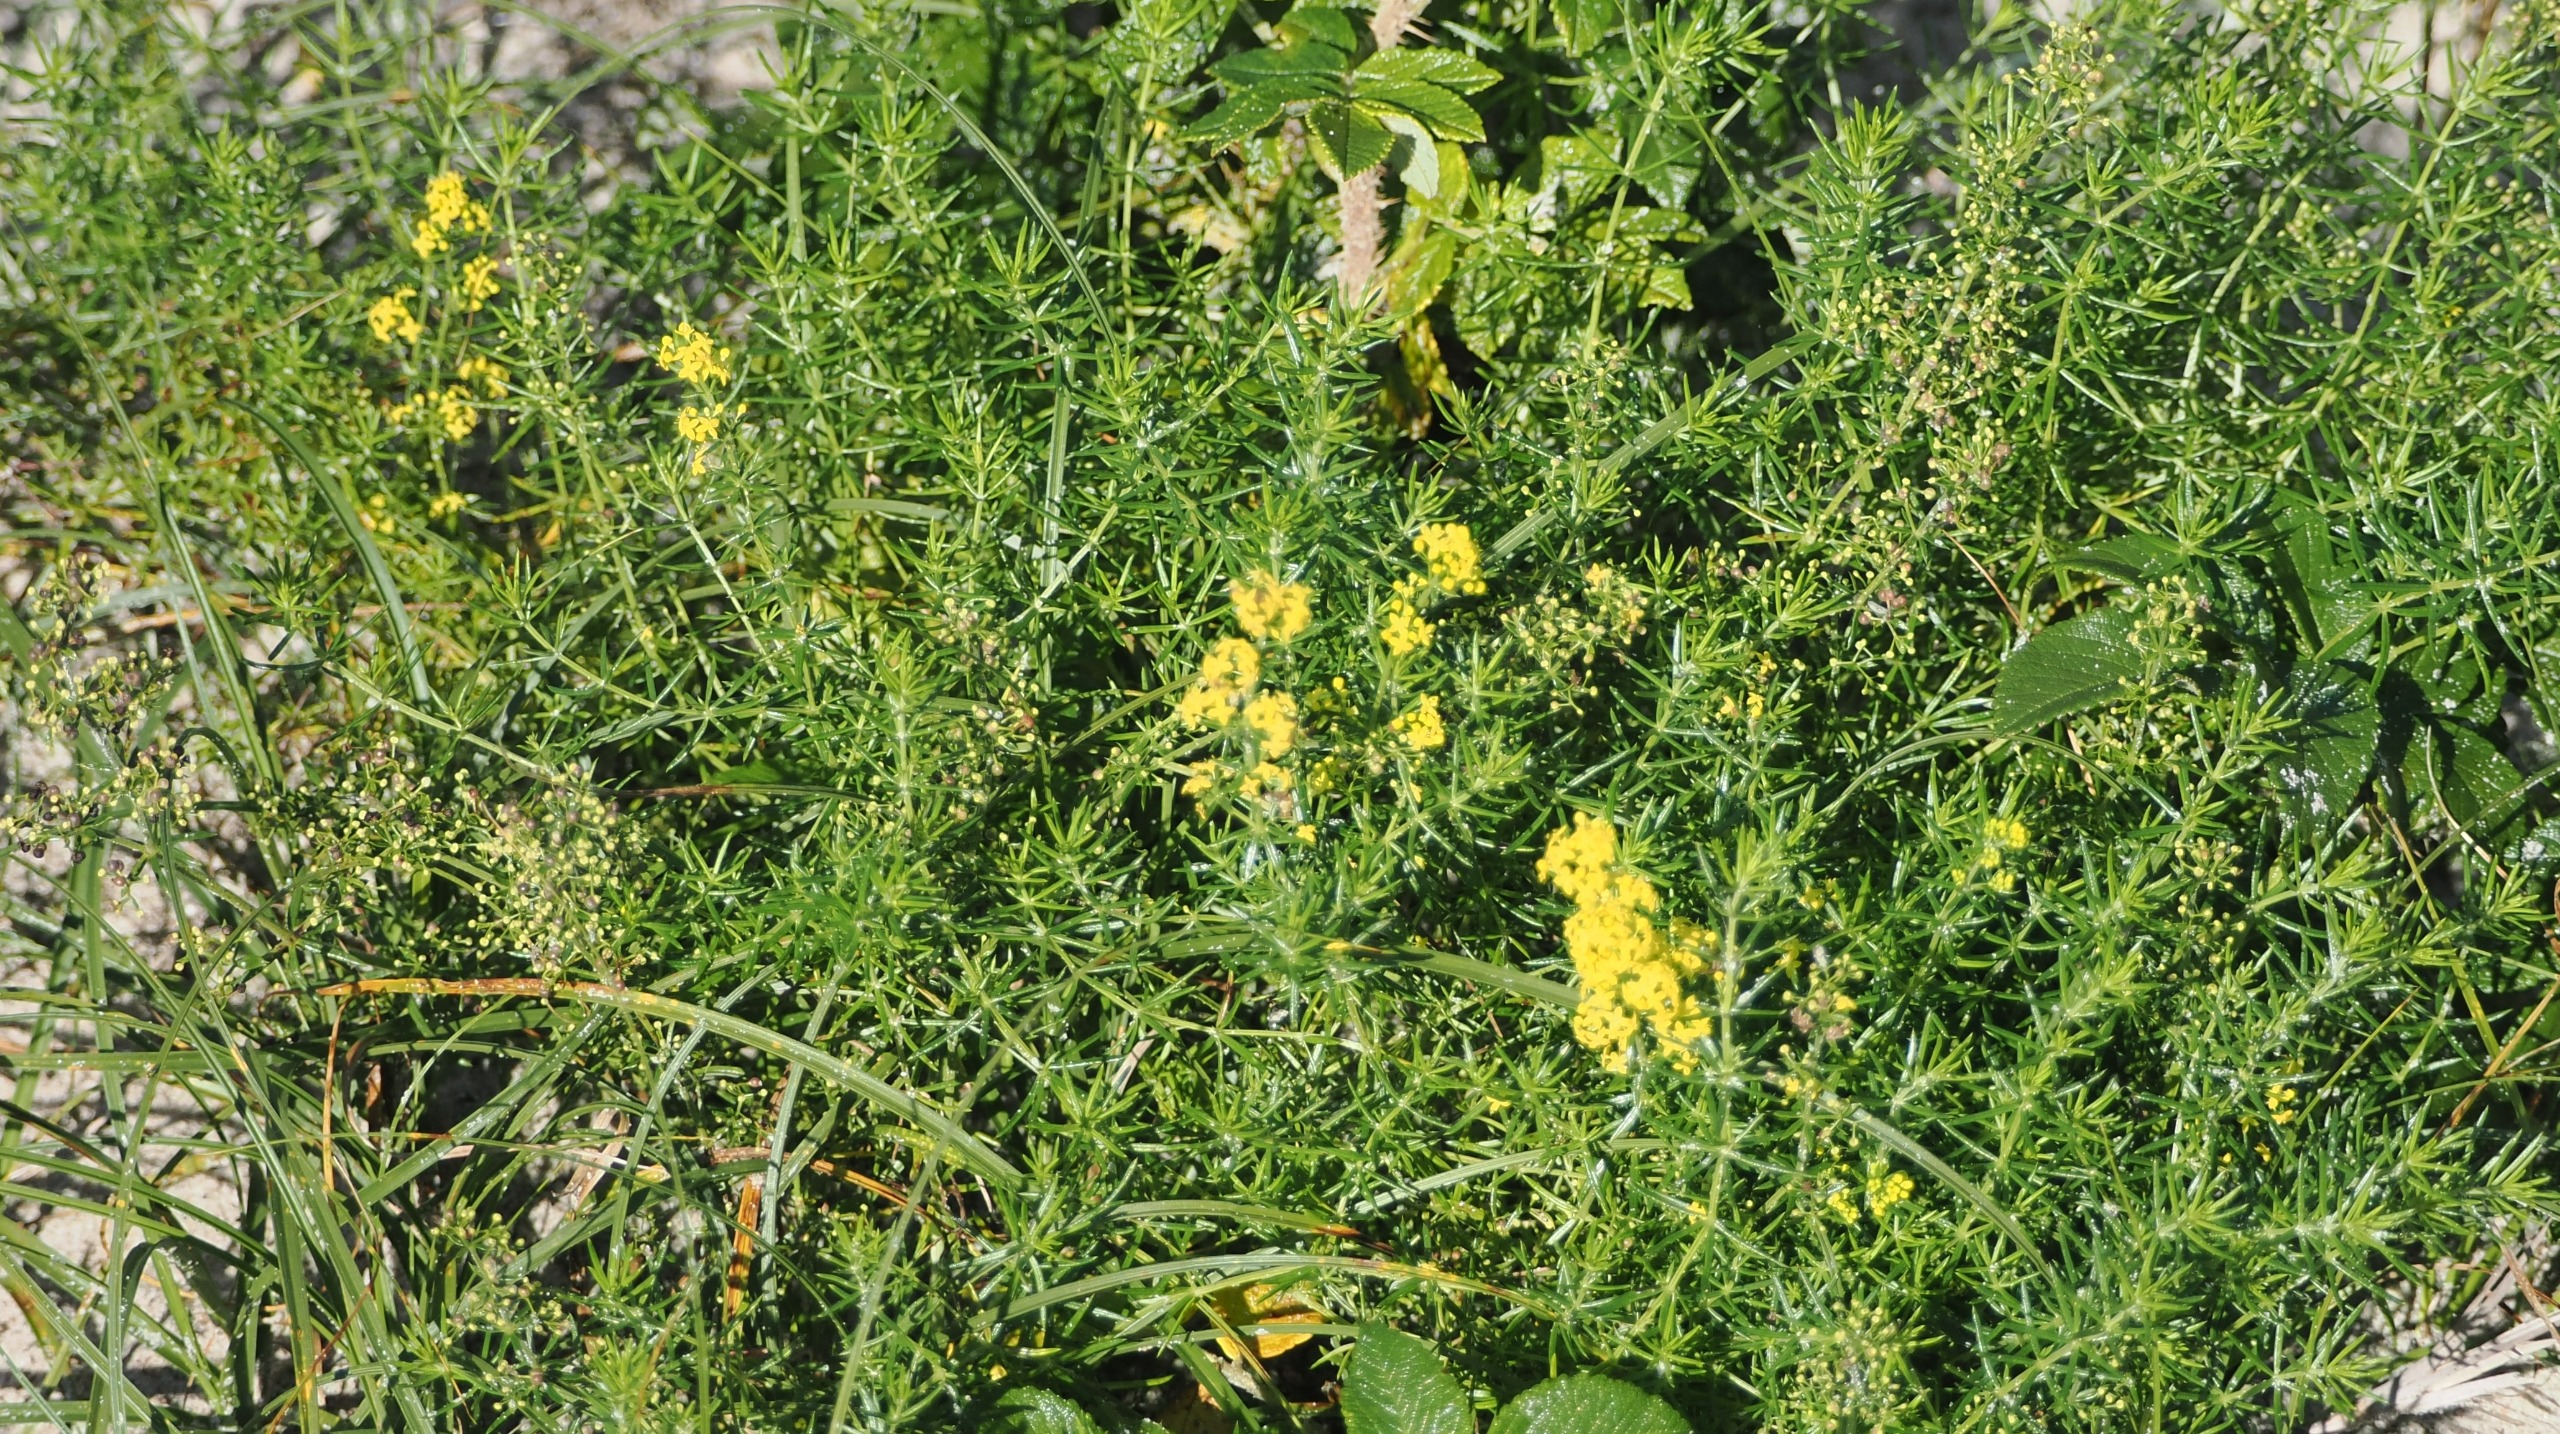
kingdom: Plantae
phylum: Tracheophyta
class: Magnoliopsida
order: Gentianales
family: Rubiaceae
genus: Galium
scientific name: Galium verum
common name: Gul snerre
